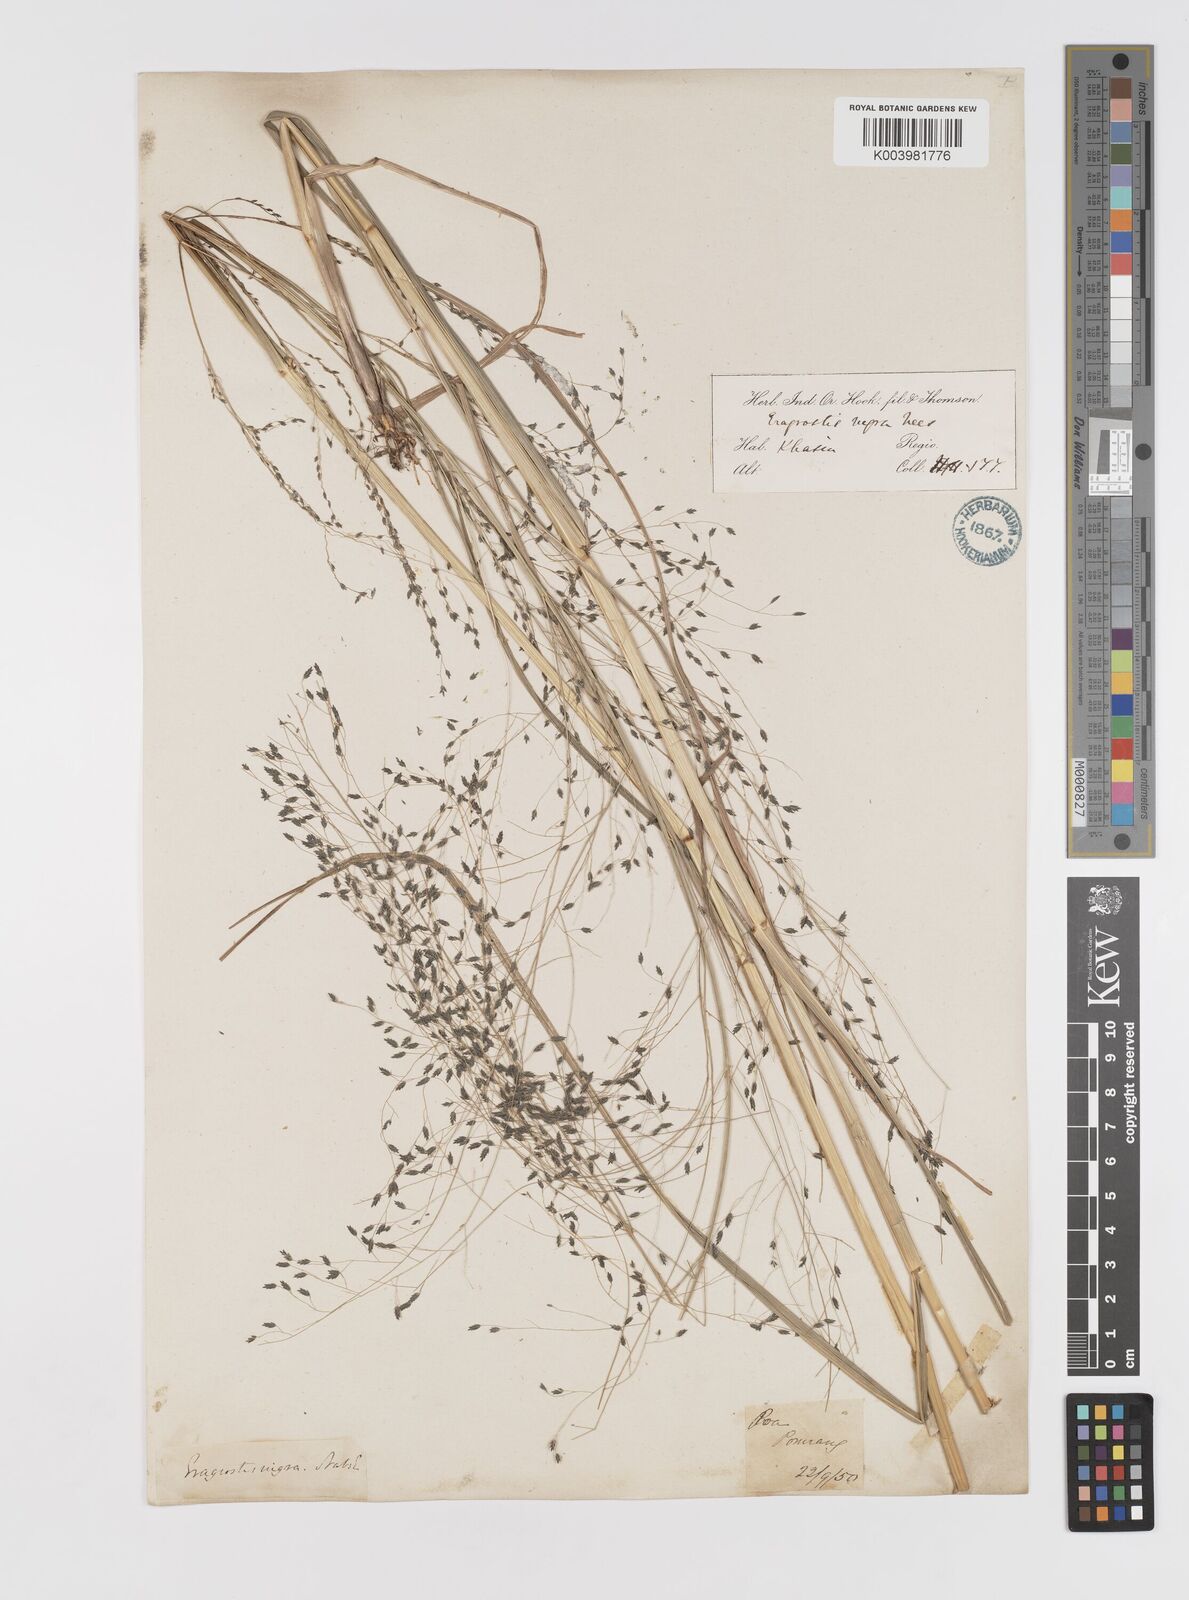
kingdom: Plantae
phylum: Tracheophyta
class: Liliopsida
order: Poales
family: Poaceae
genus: Eragrostis
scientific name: Eragrostis nigra
